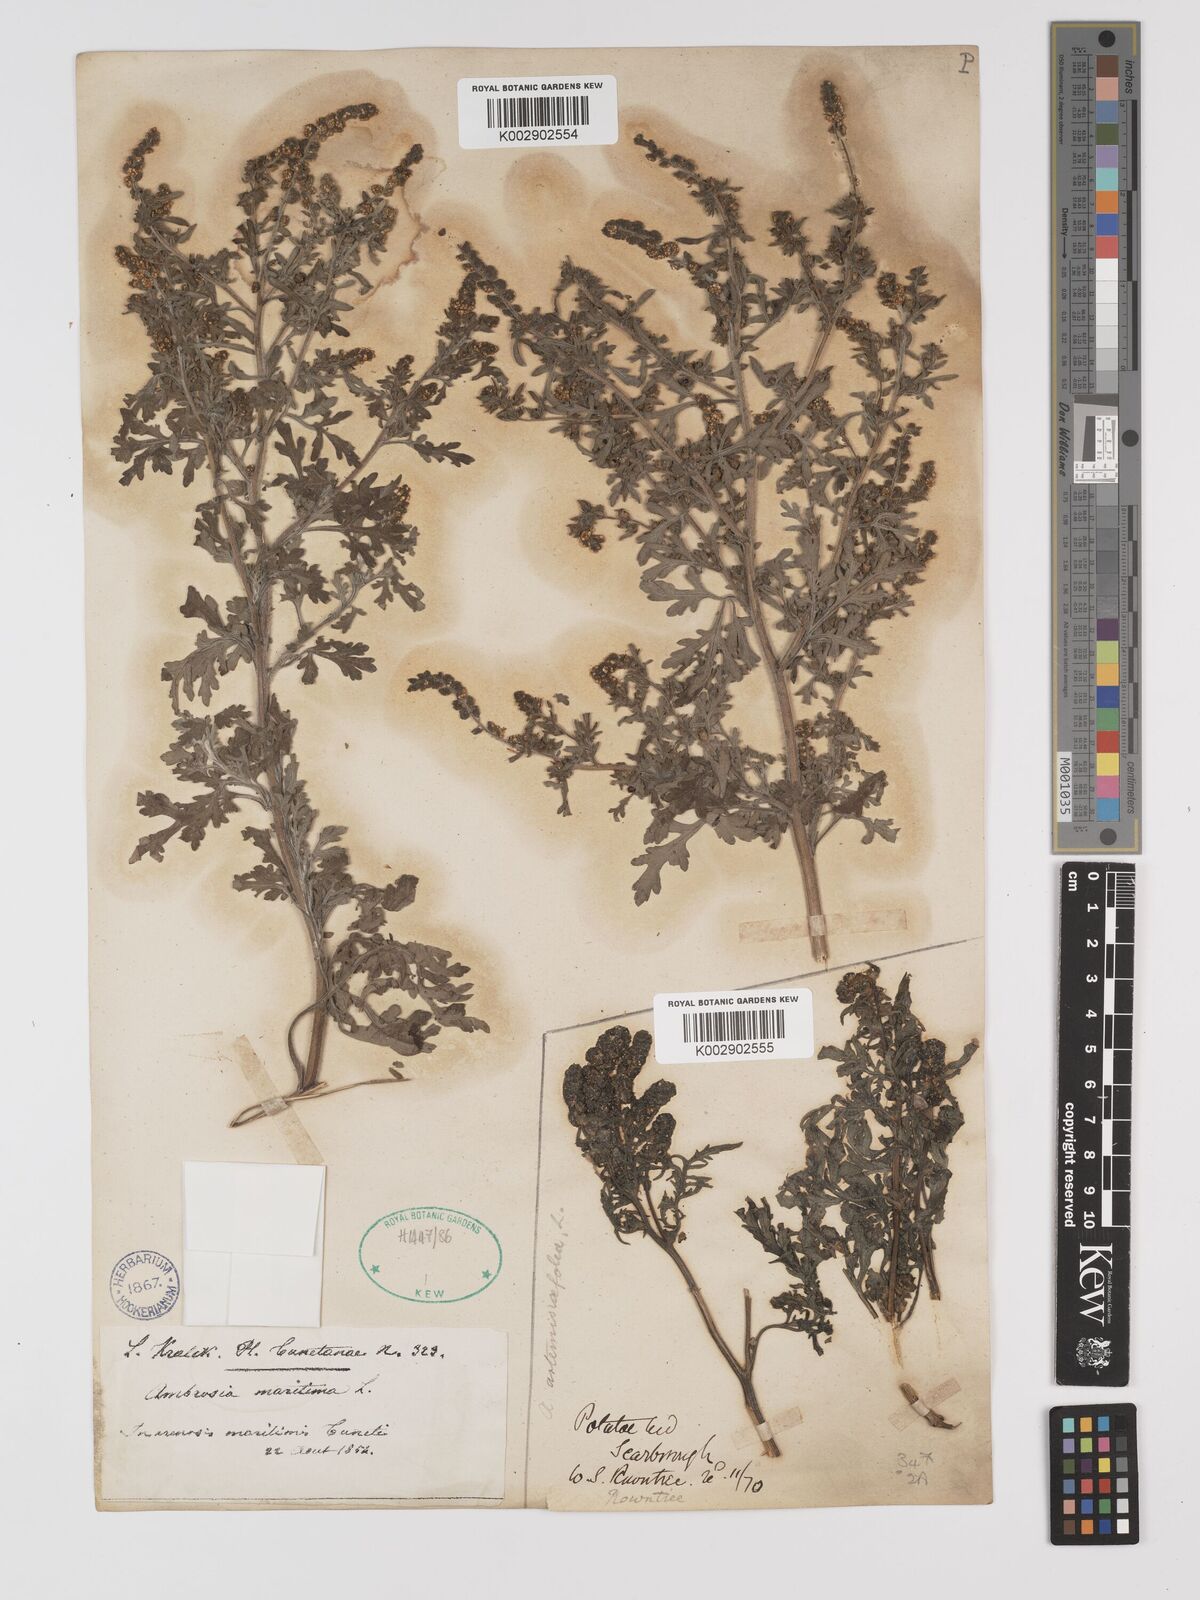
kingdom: Plantae
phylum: Tracheophyta
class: Magnoliopsida
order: Asterales
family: Asteraceae
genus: Ambrosia
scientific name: Ambrosia maritima
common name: Sea ambrosia
